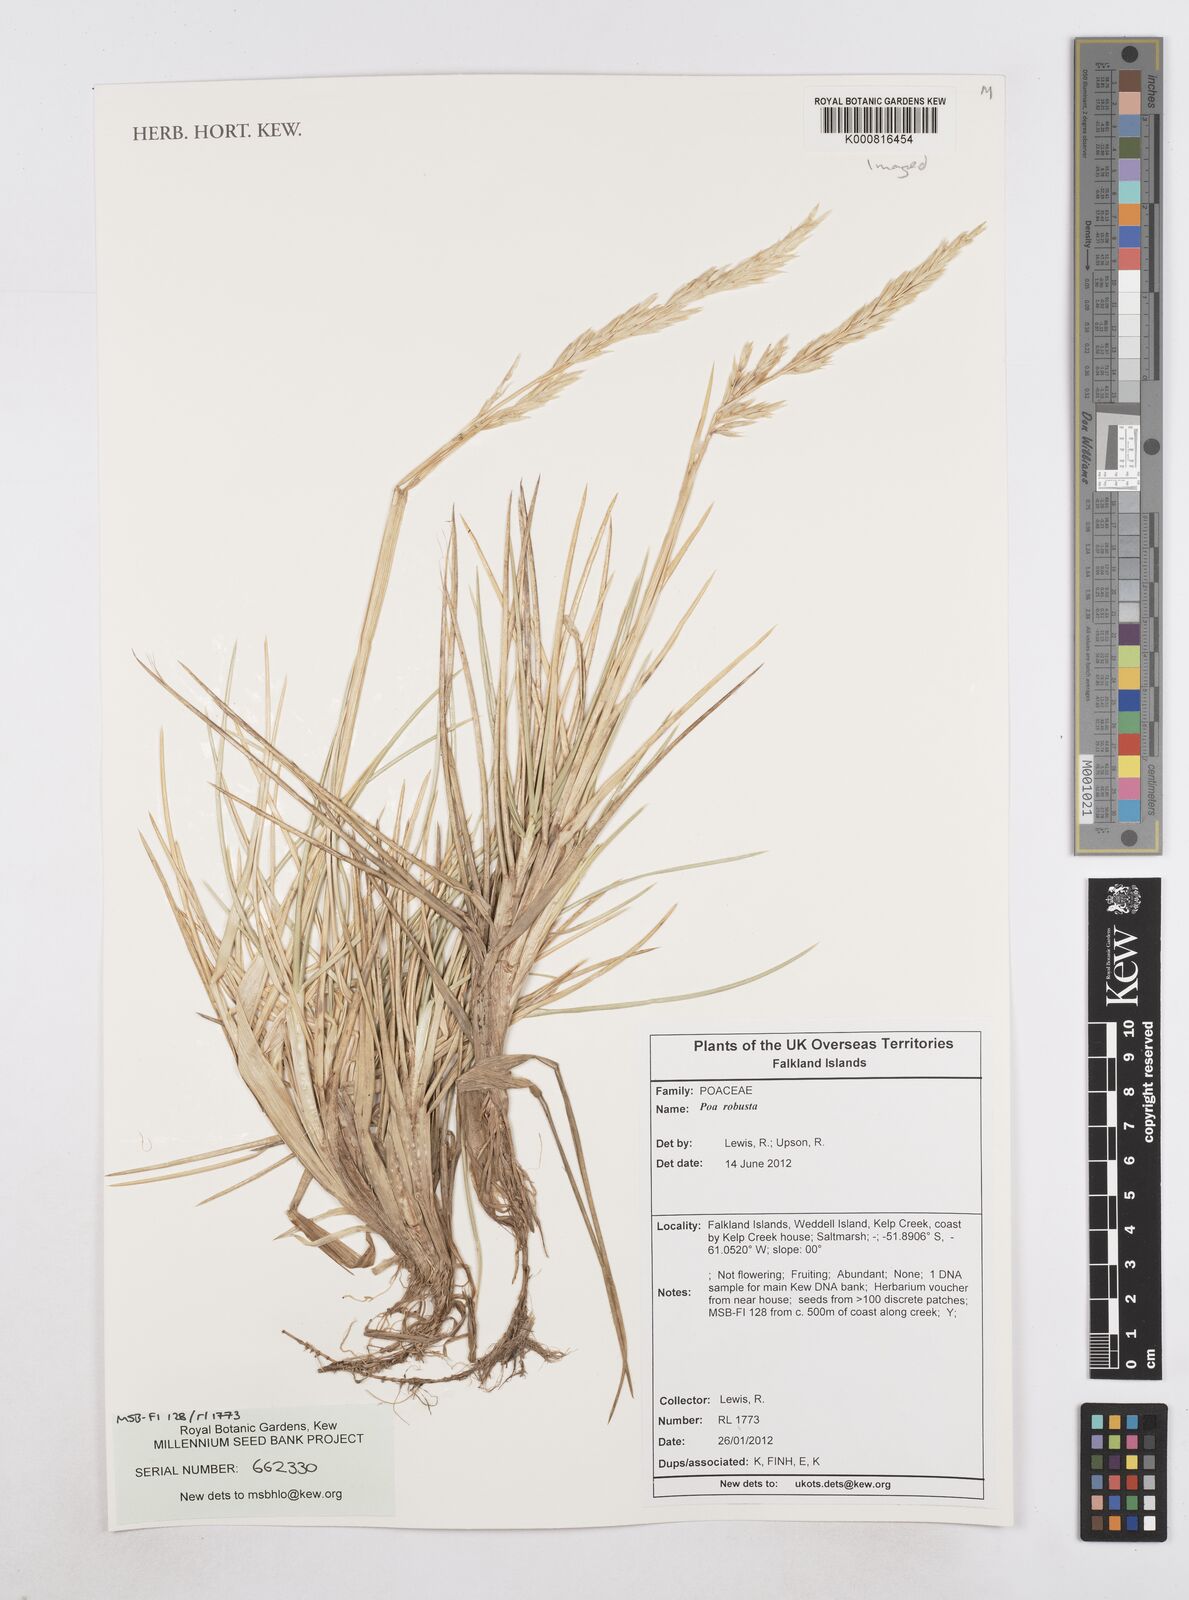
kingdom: Plantae
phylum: Tracheophyta
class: Liliopsida
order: Poales
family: Poaceae
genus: Nicoraepoa
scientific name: Nicoraepoa chonotica
